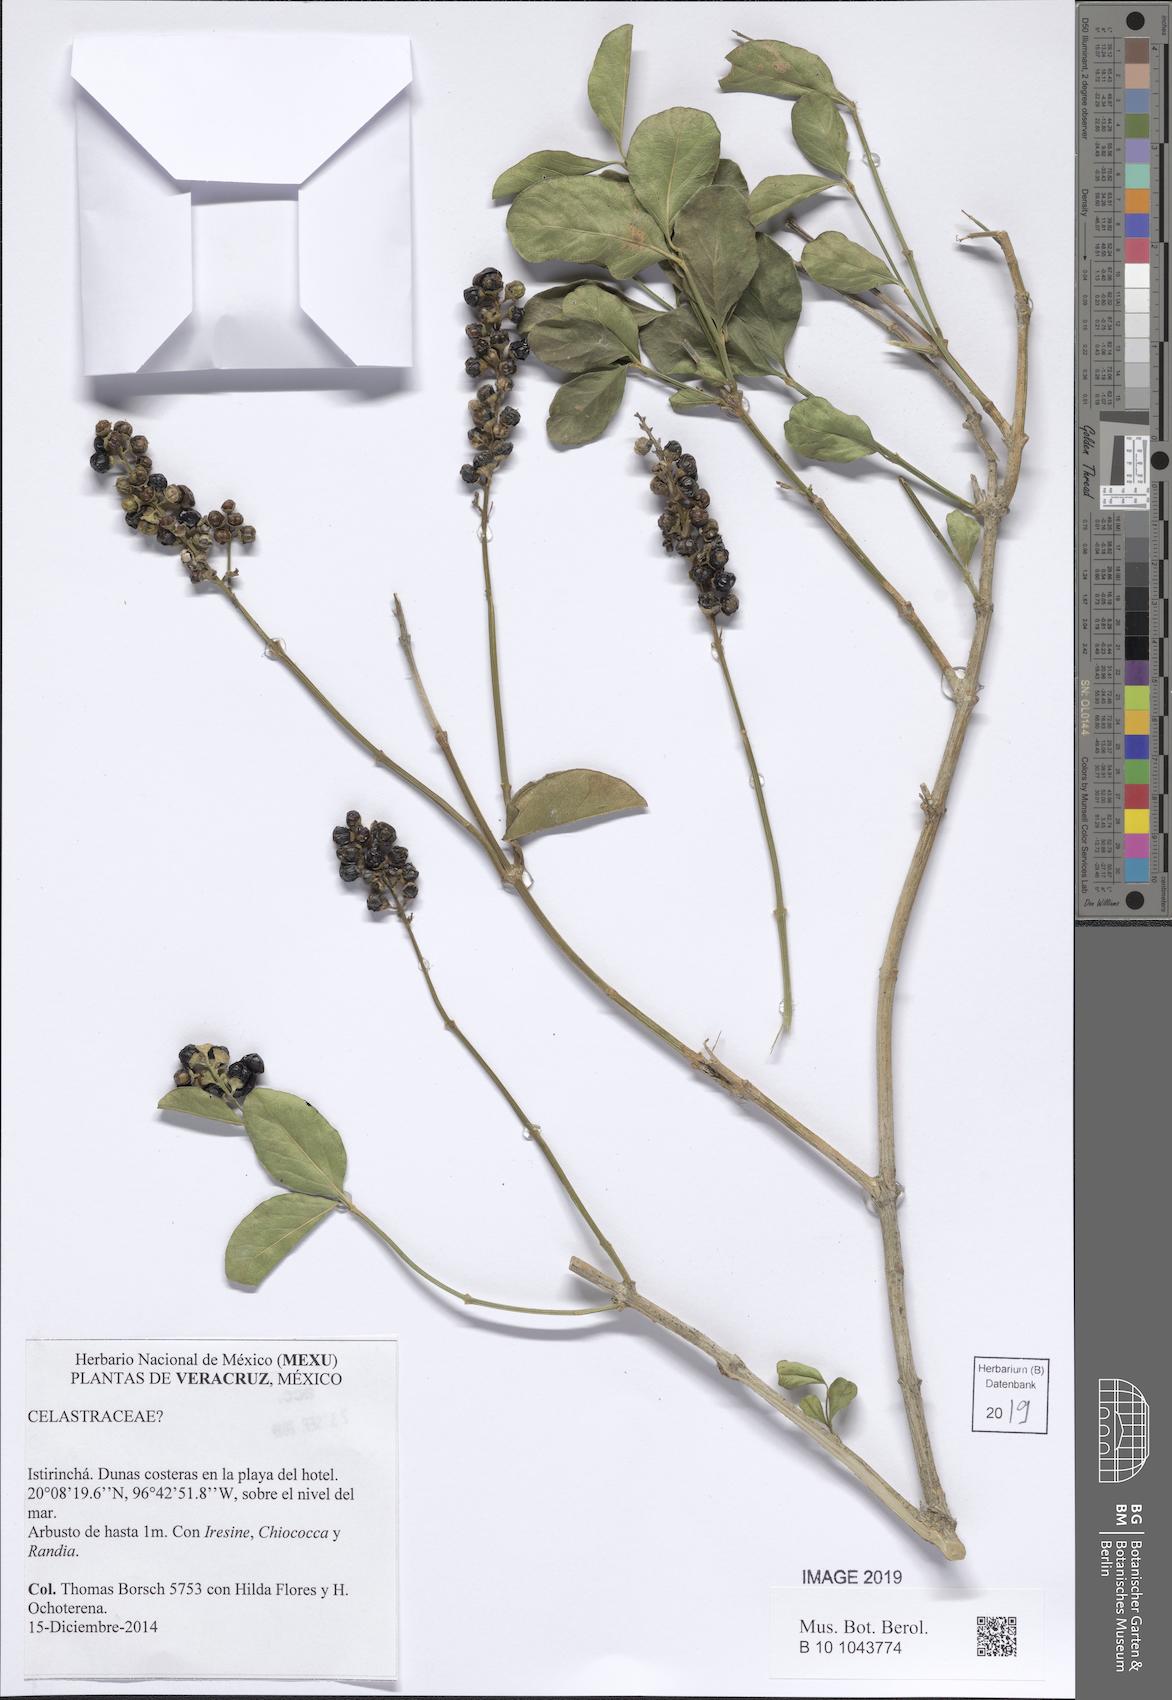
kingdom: Plantae
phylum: Tracheophyta
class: Magnoliopsida
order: Celastrales
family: Celastraceae
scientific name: Celastraceae
